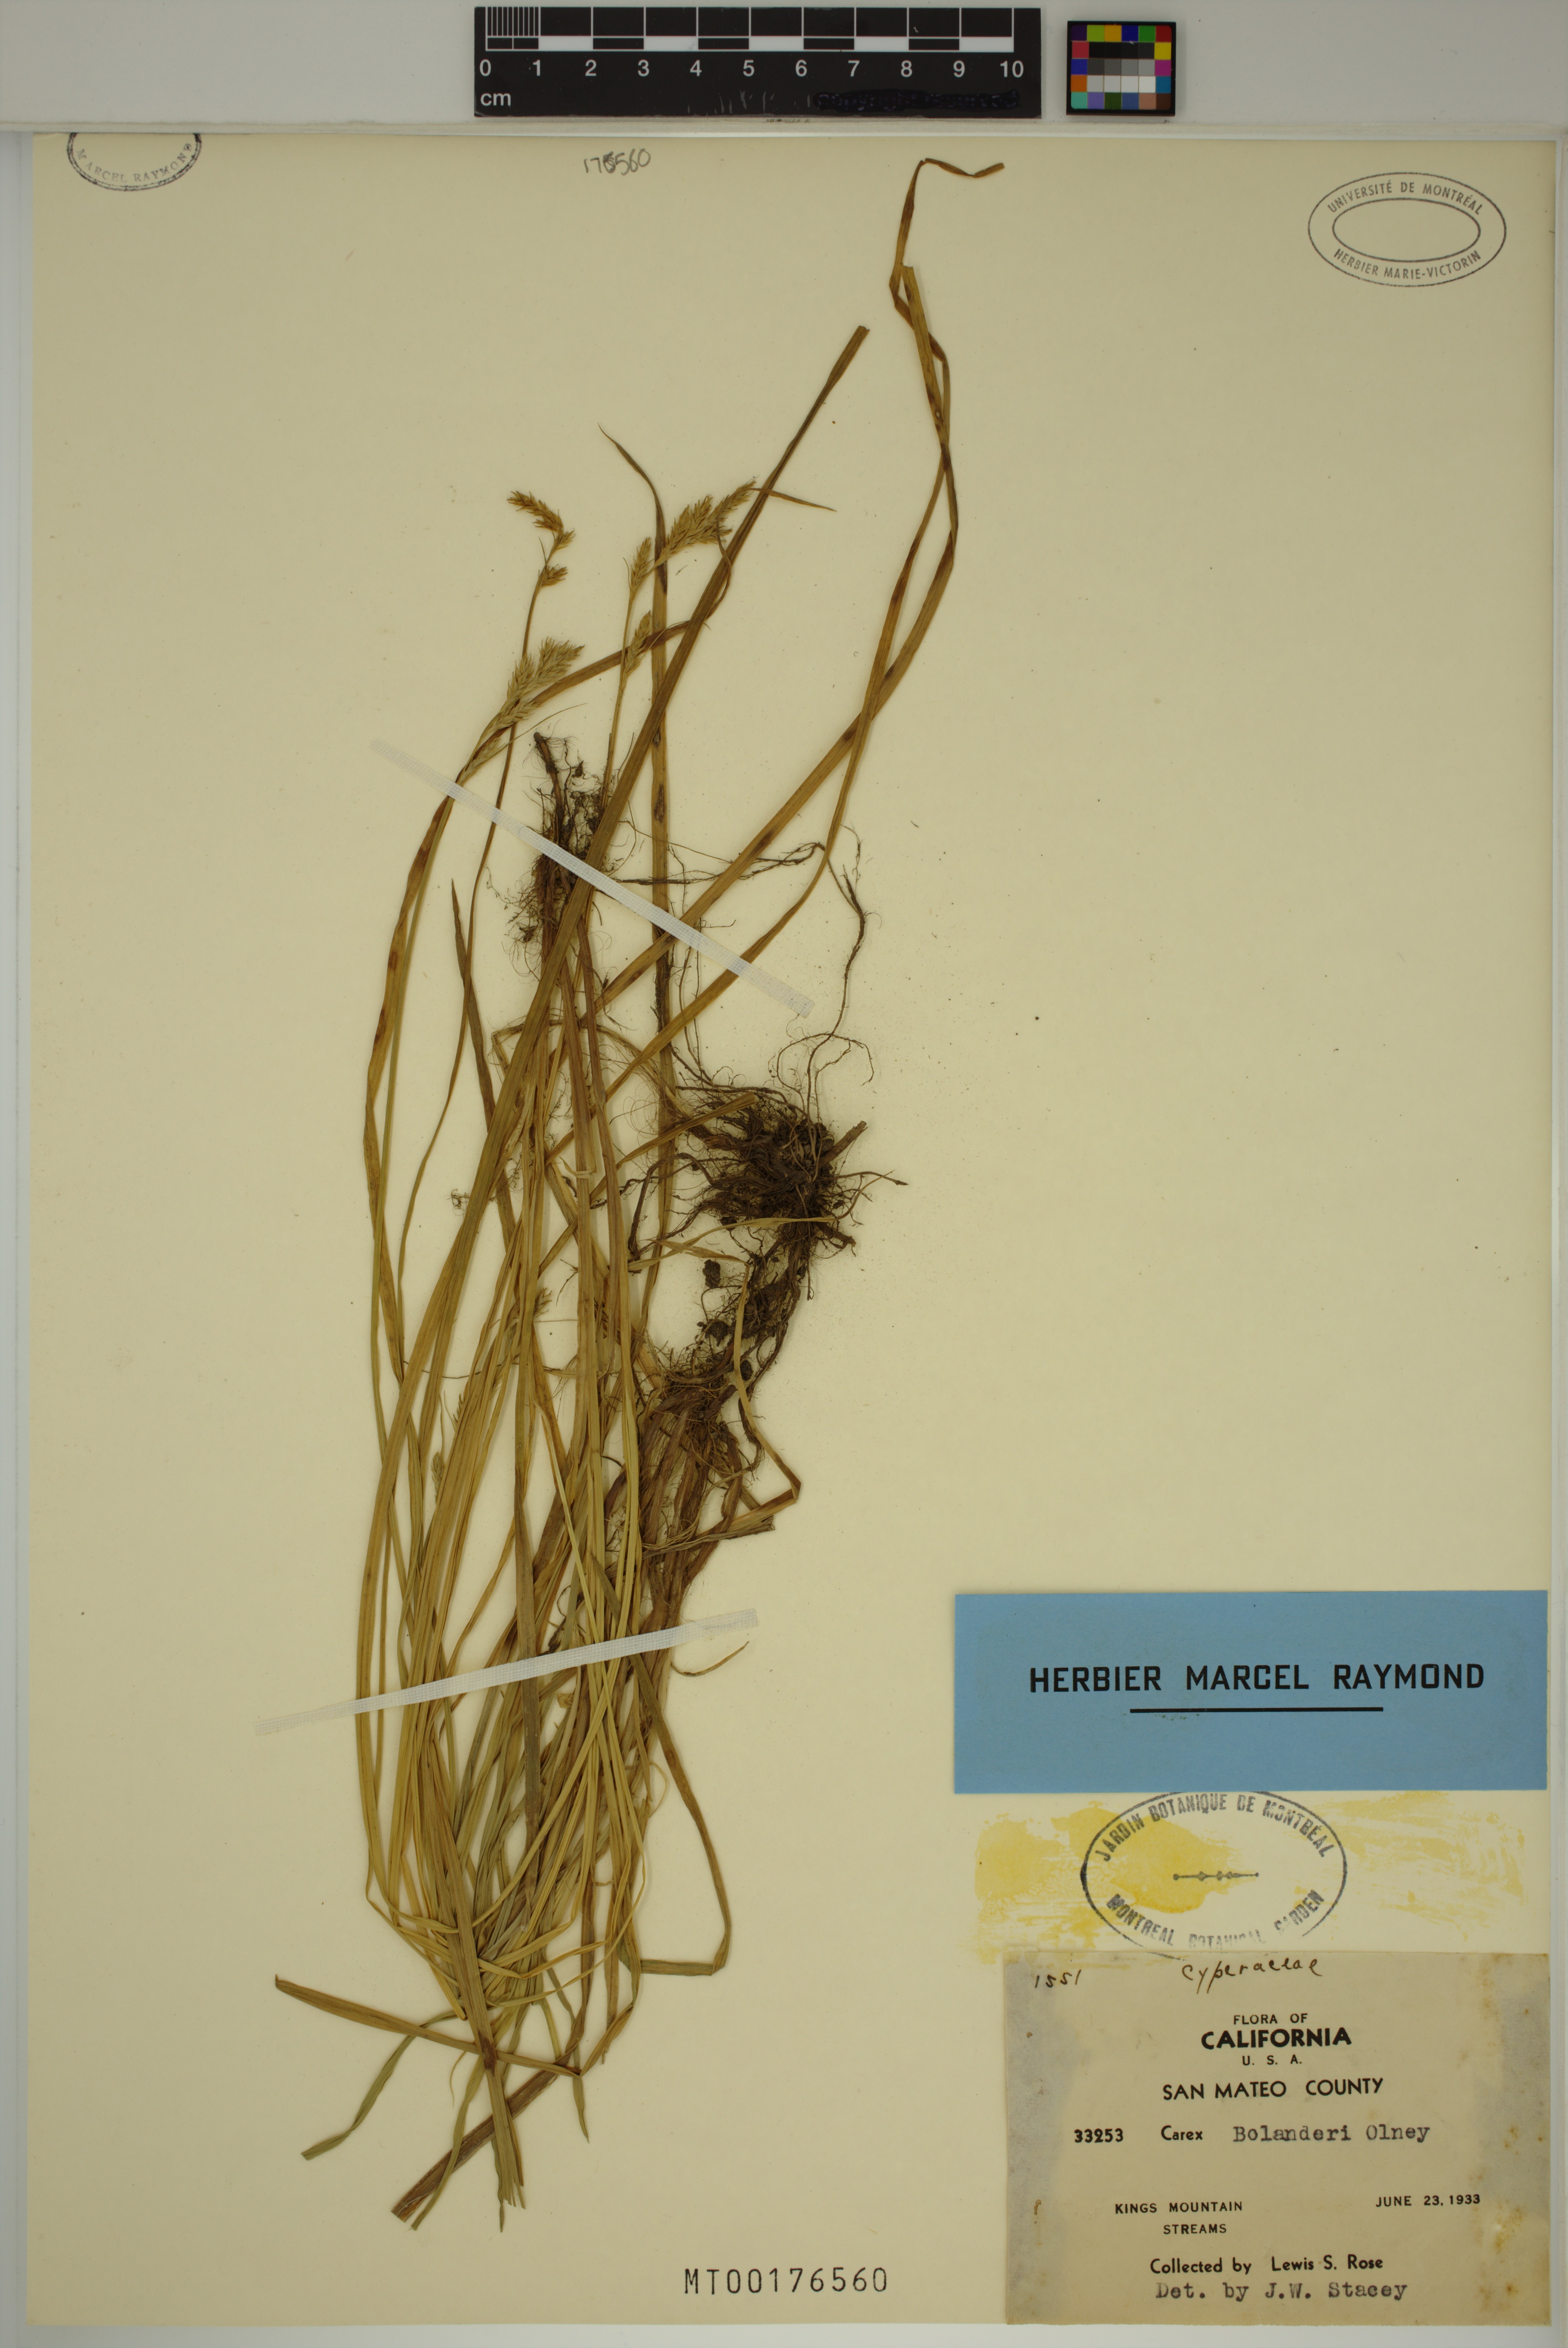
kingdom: Plantae
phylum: Tracheophyta
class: Liliopsida
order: Poales
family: Cyperaceae
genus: Carex
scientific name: Carex bolanderi
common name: Bolander's sedge
